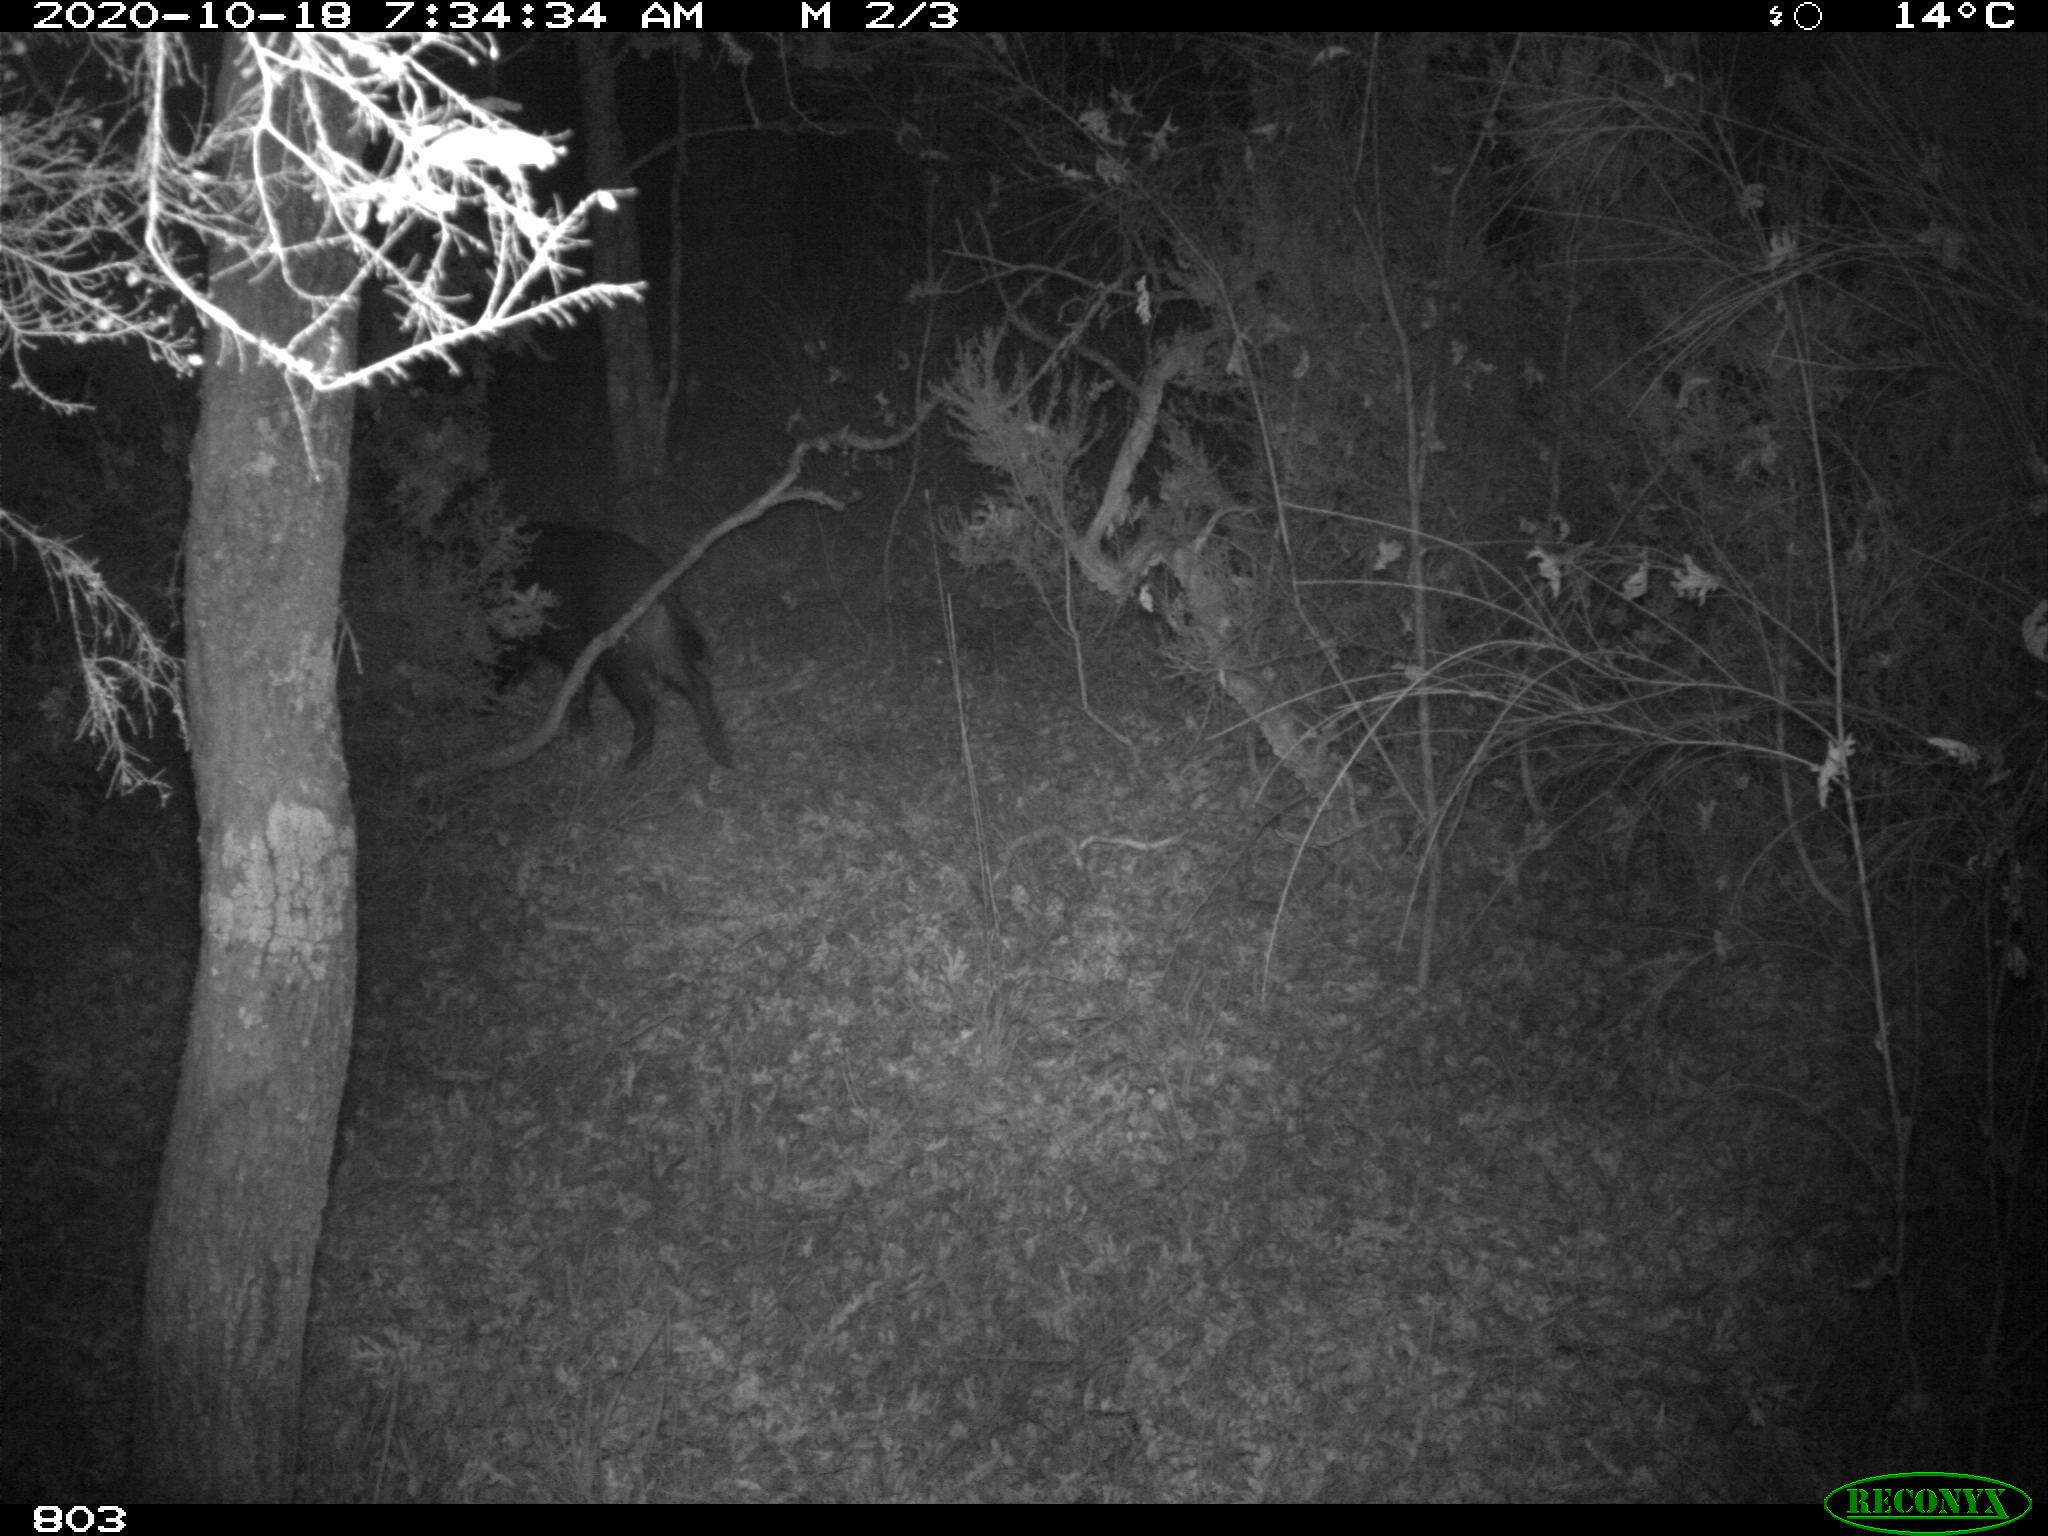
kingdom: Animalia
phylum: Chordata
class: Mammalia
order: Artiodactyla
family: Suidae
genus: Sus
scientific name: Sus scrofa
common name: Wild boar
